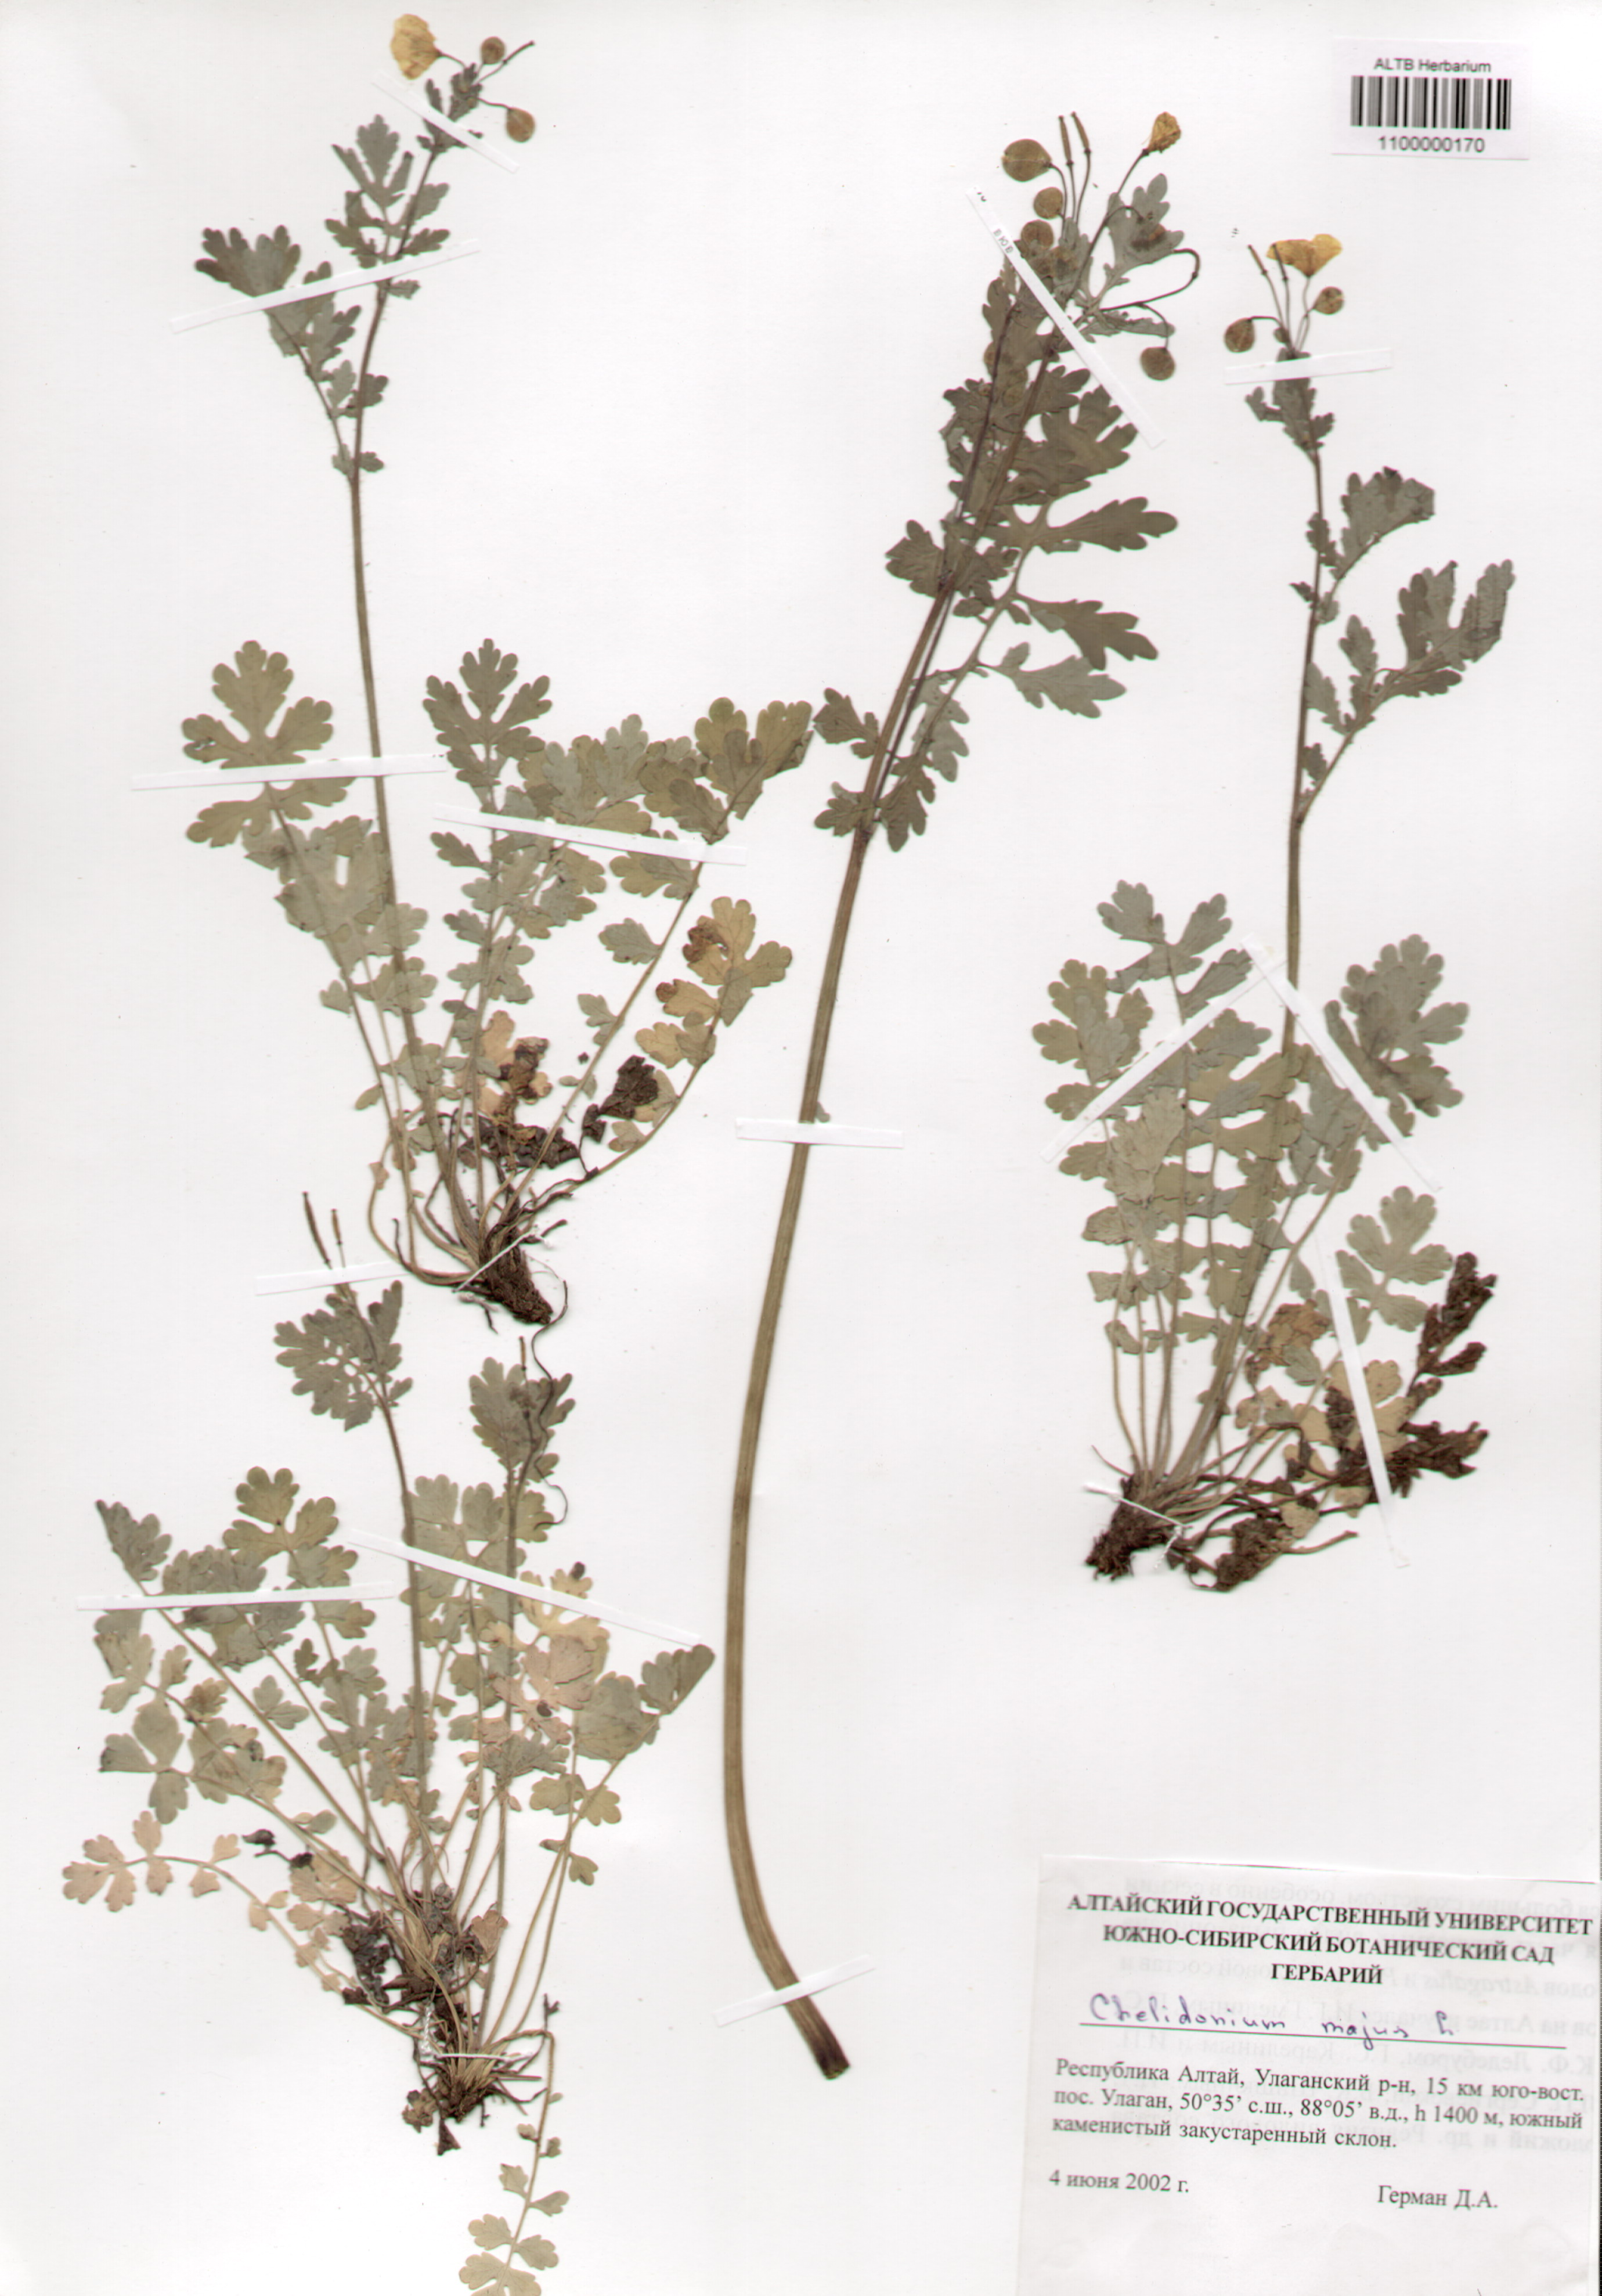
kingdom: Plantae
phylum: Tracheophyta
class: Magnoliopsida
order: Ranunculales
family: Papaveraceae
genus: Chelidonium
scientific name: Chelidonium majus
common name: Greater celandine
